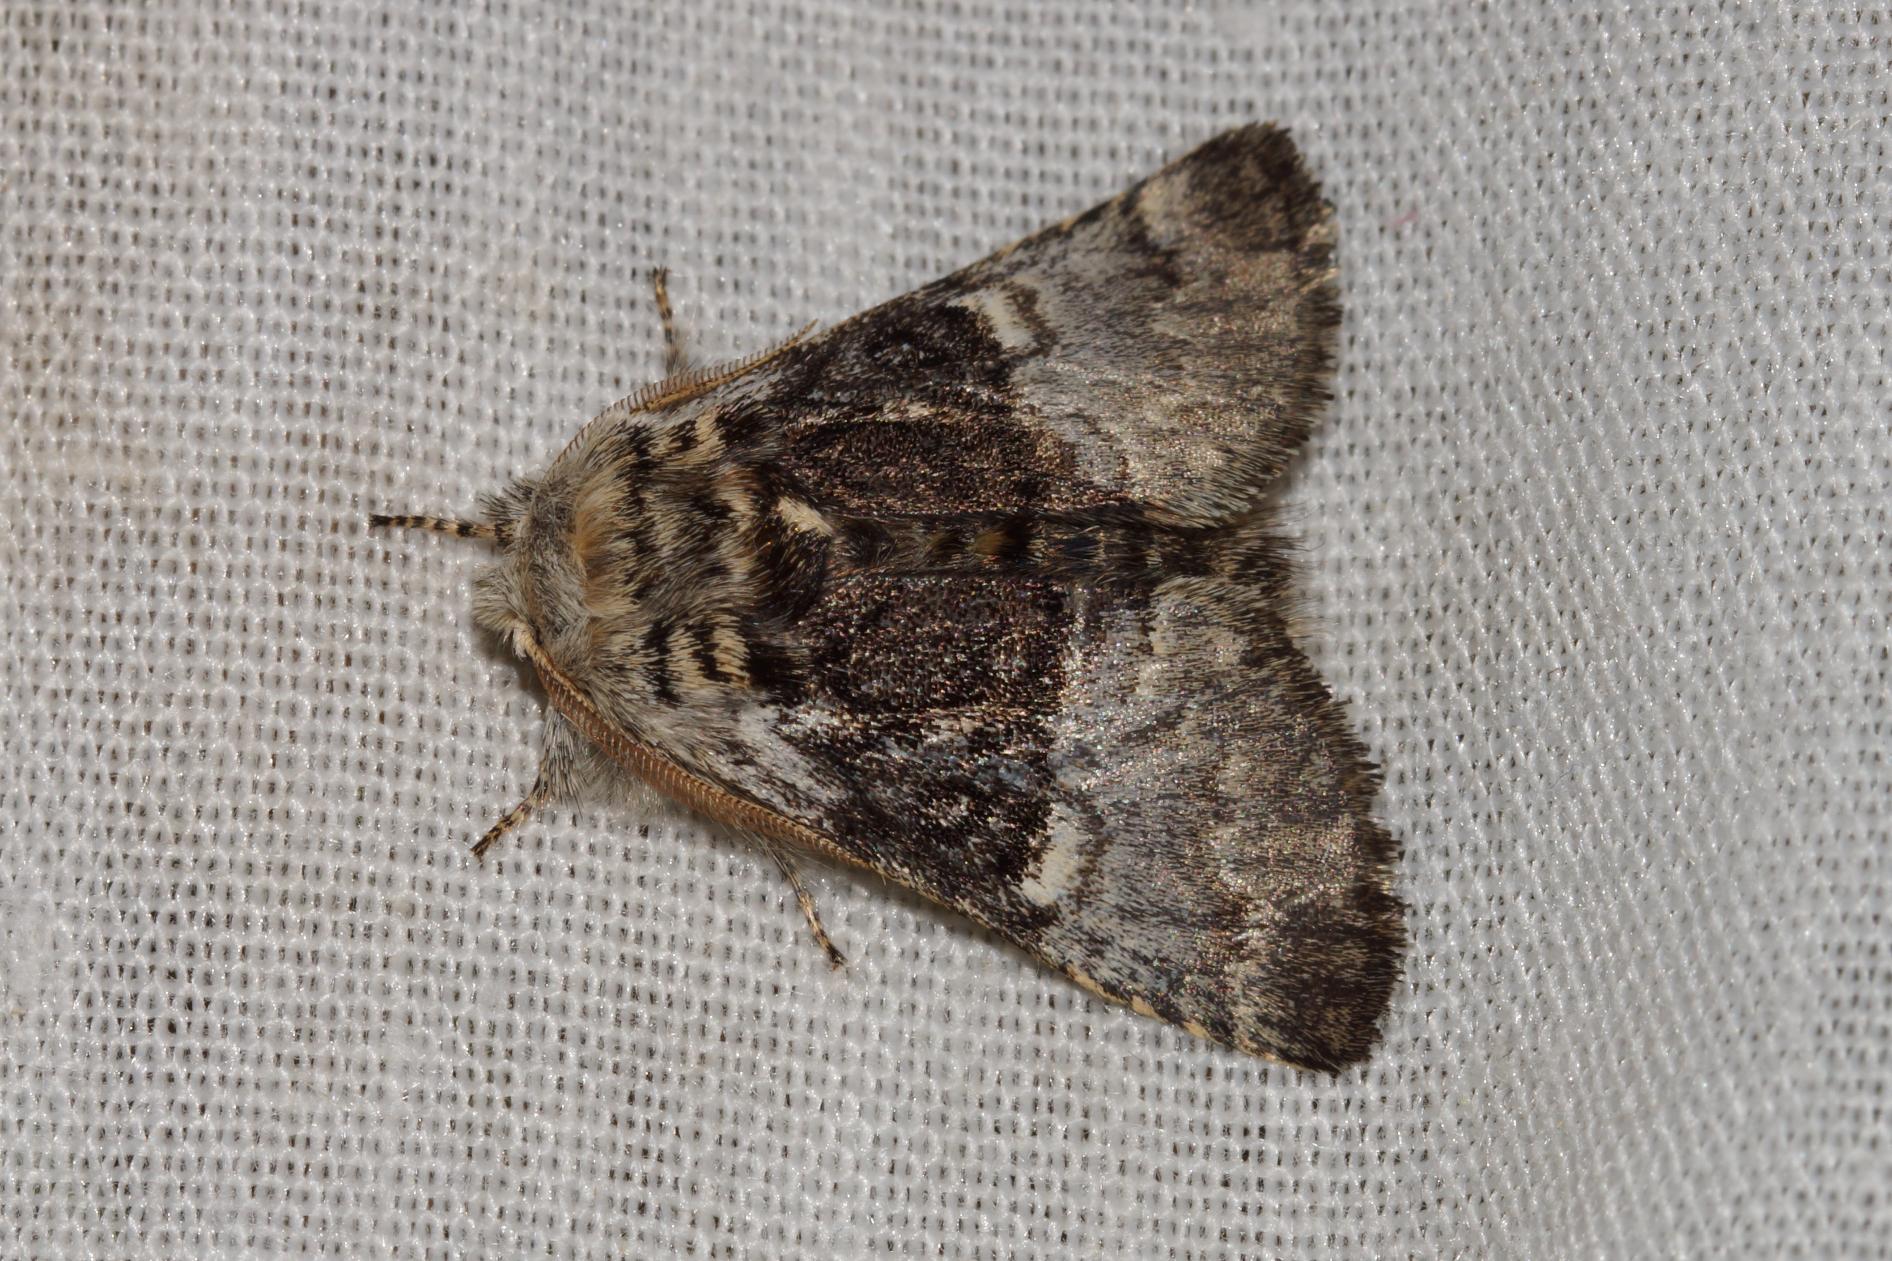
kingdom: Animalia
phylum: Arthropoda
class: Insecta
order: Lepidoptera
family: Noctuidae
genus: Colocasia
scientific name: Colocasia coryli
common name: Penselugle
